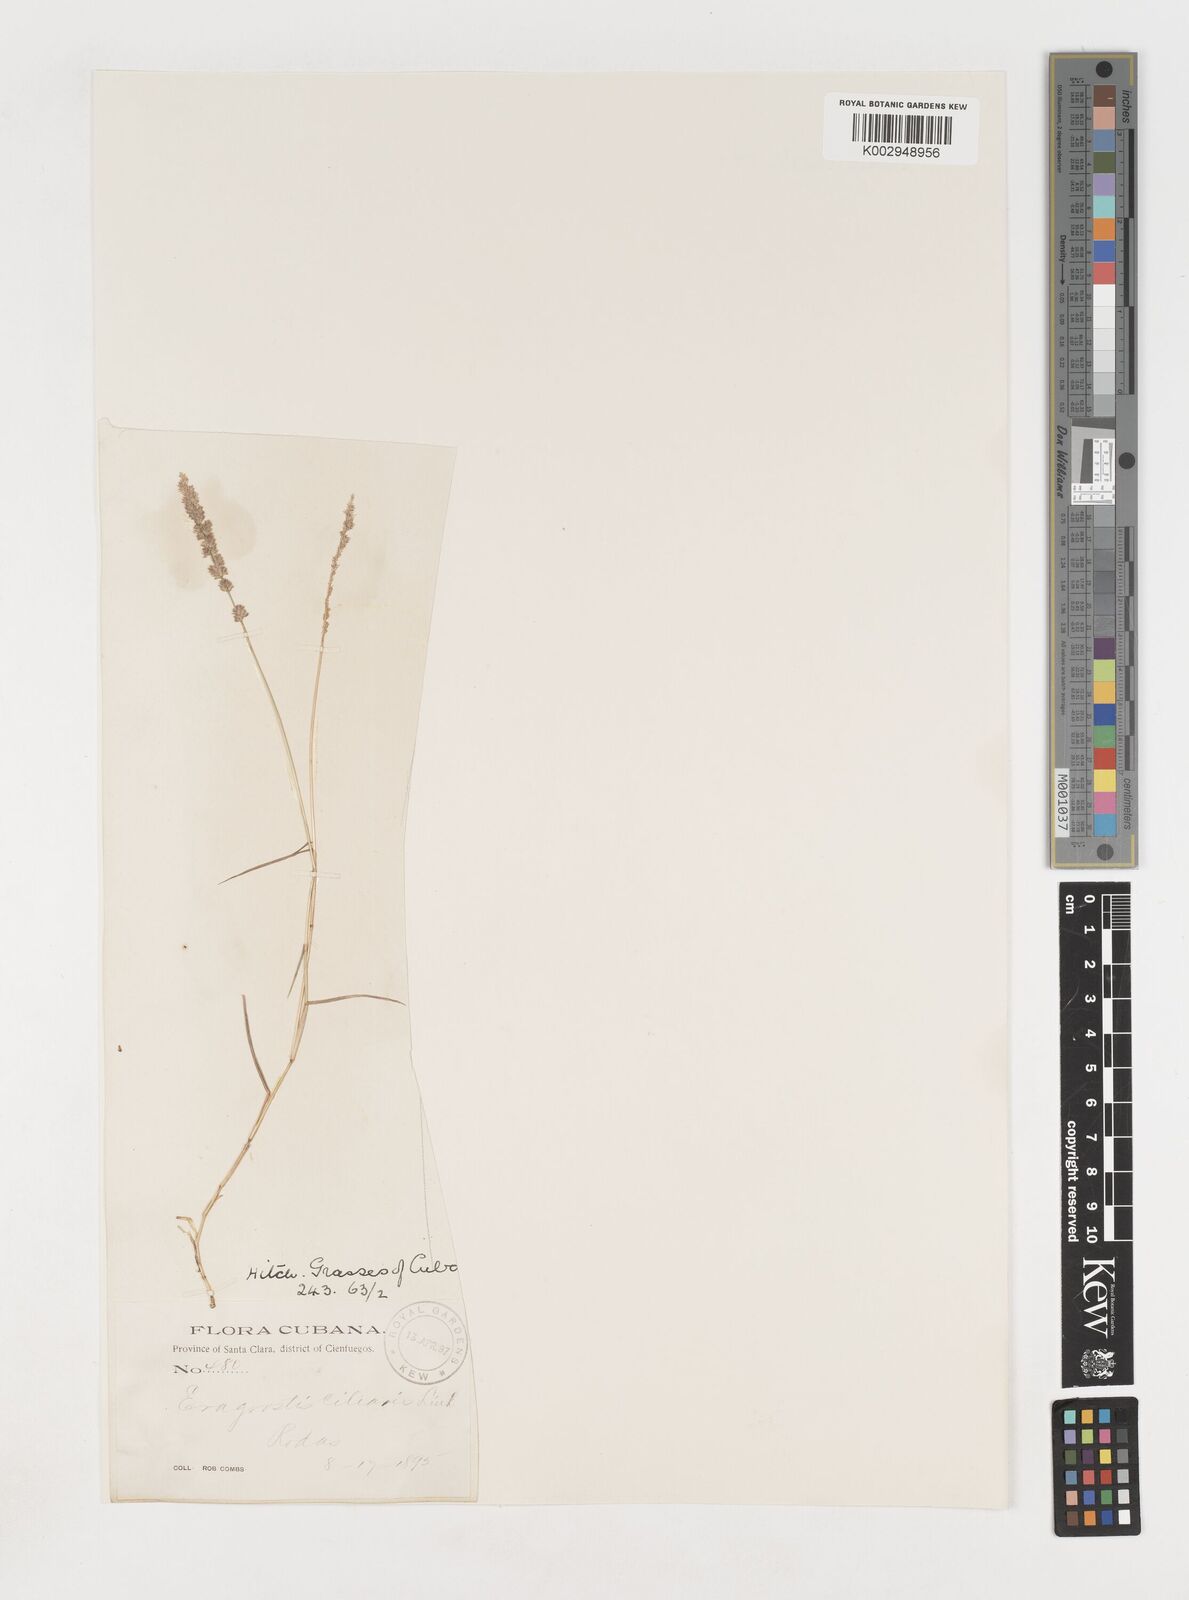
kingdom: Plantae
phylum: Tracheophyta
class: Liliopsida
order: Poales
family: Poaceae
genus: Eragrostis
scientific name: Eragrostis ciliaris
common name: Gophertail lovegrass
